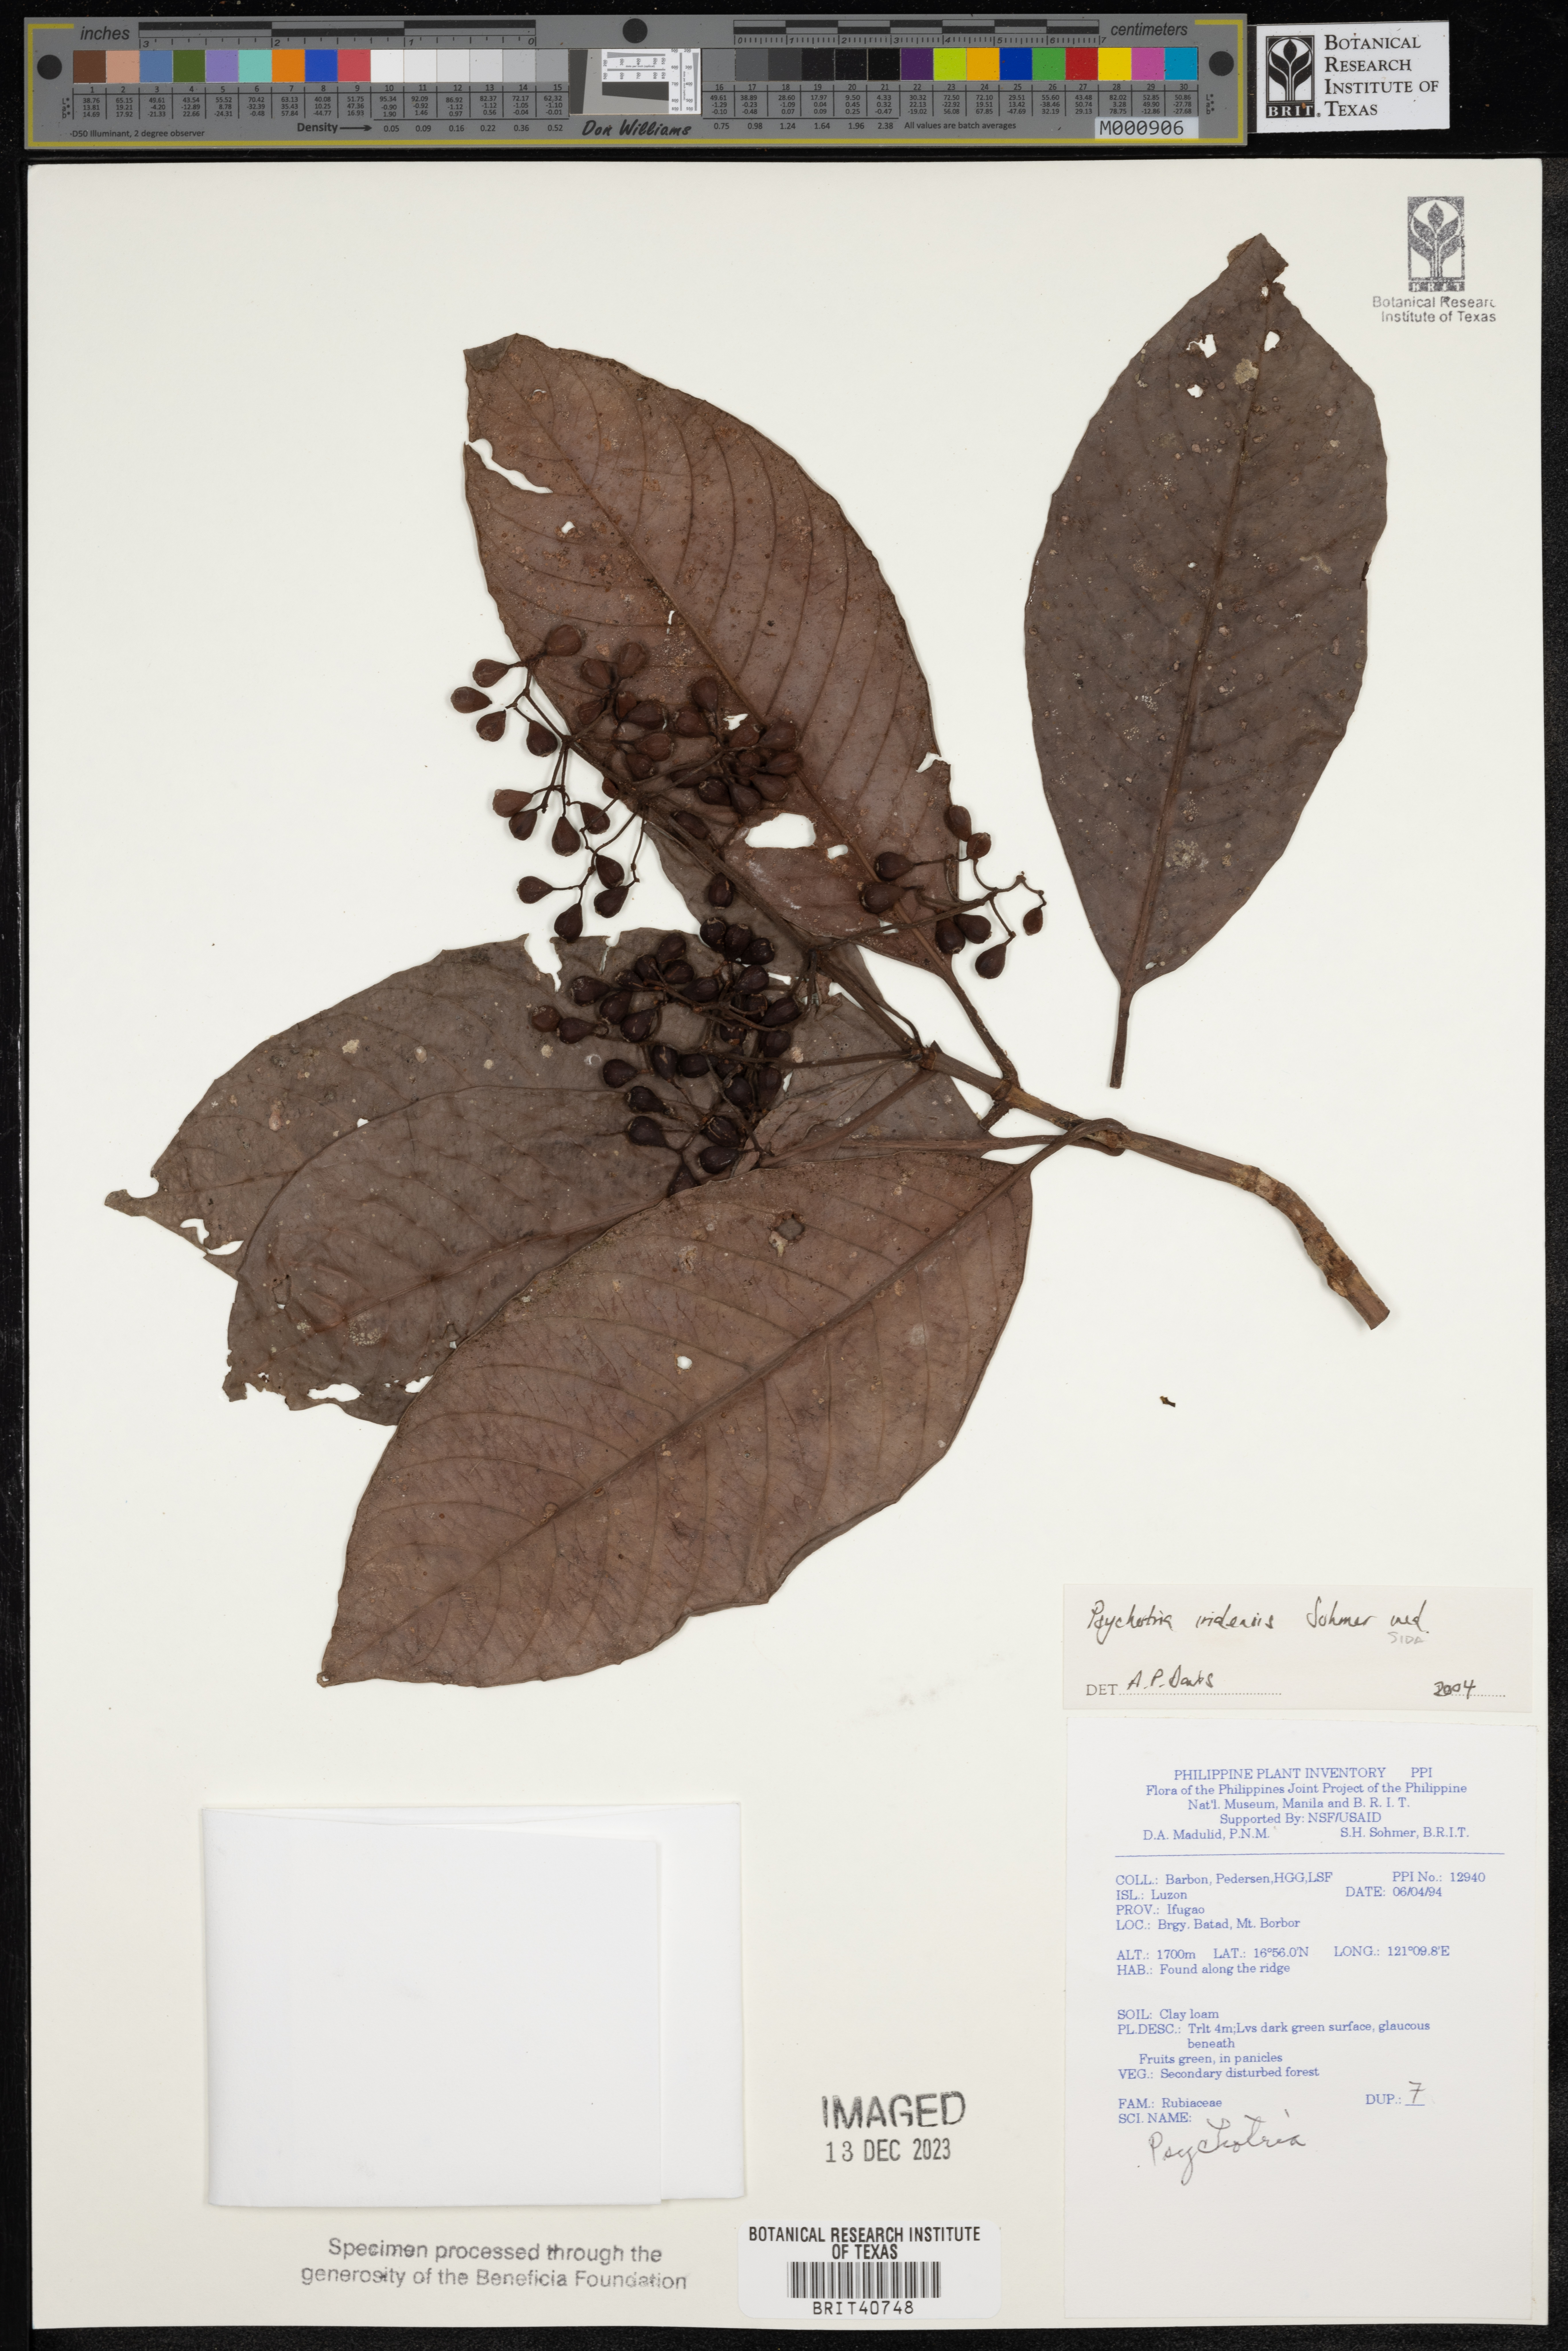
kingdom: Plantae
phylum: Tracheophyta
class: Magnoliopsida
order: Gentianales
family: Rubiaceae
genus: Psychotria
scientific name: Psychotria iridensis
